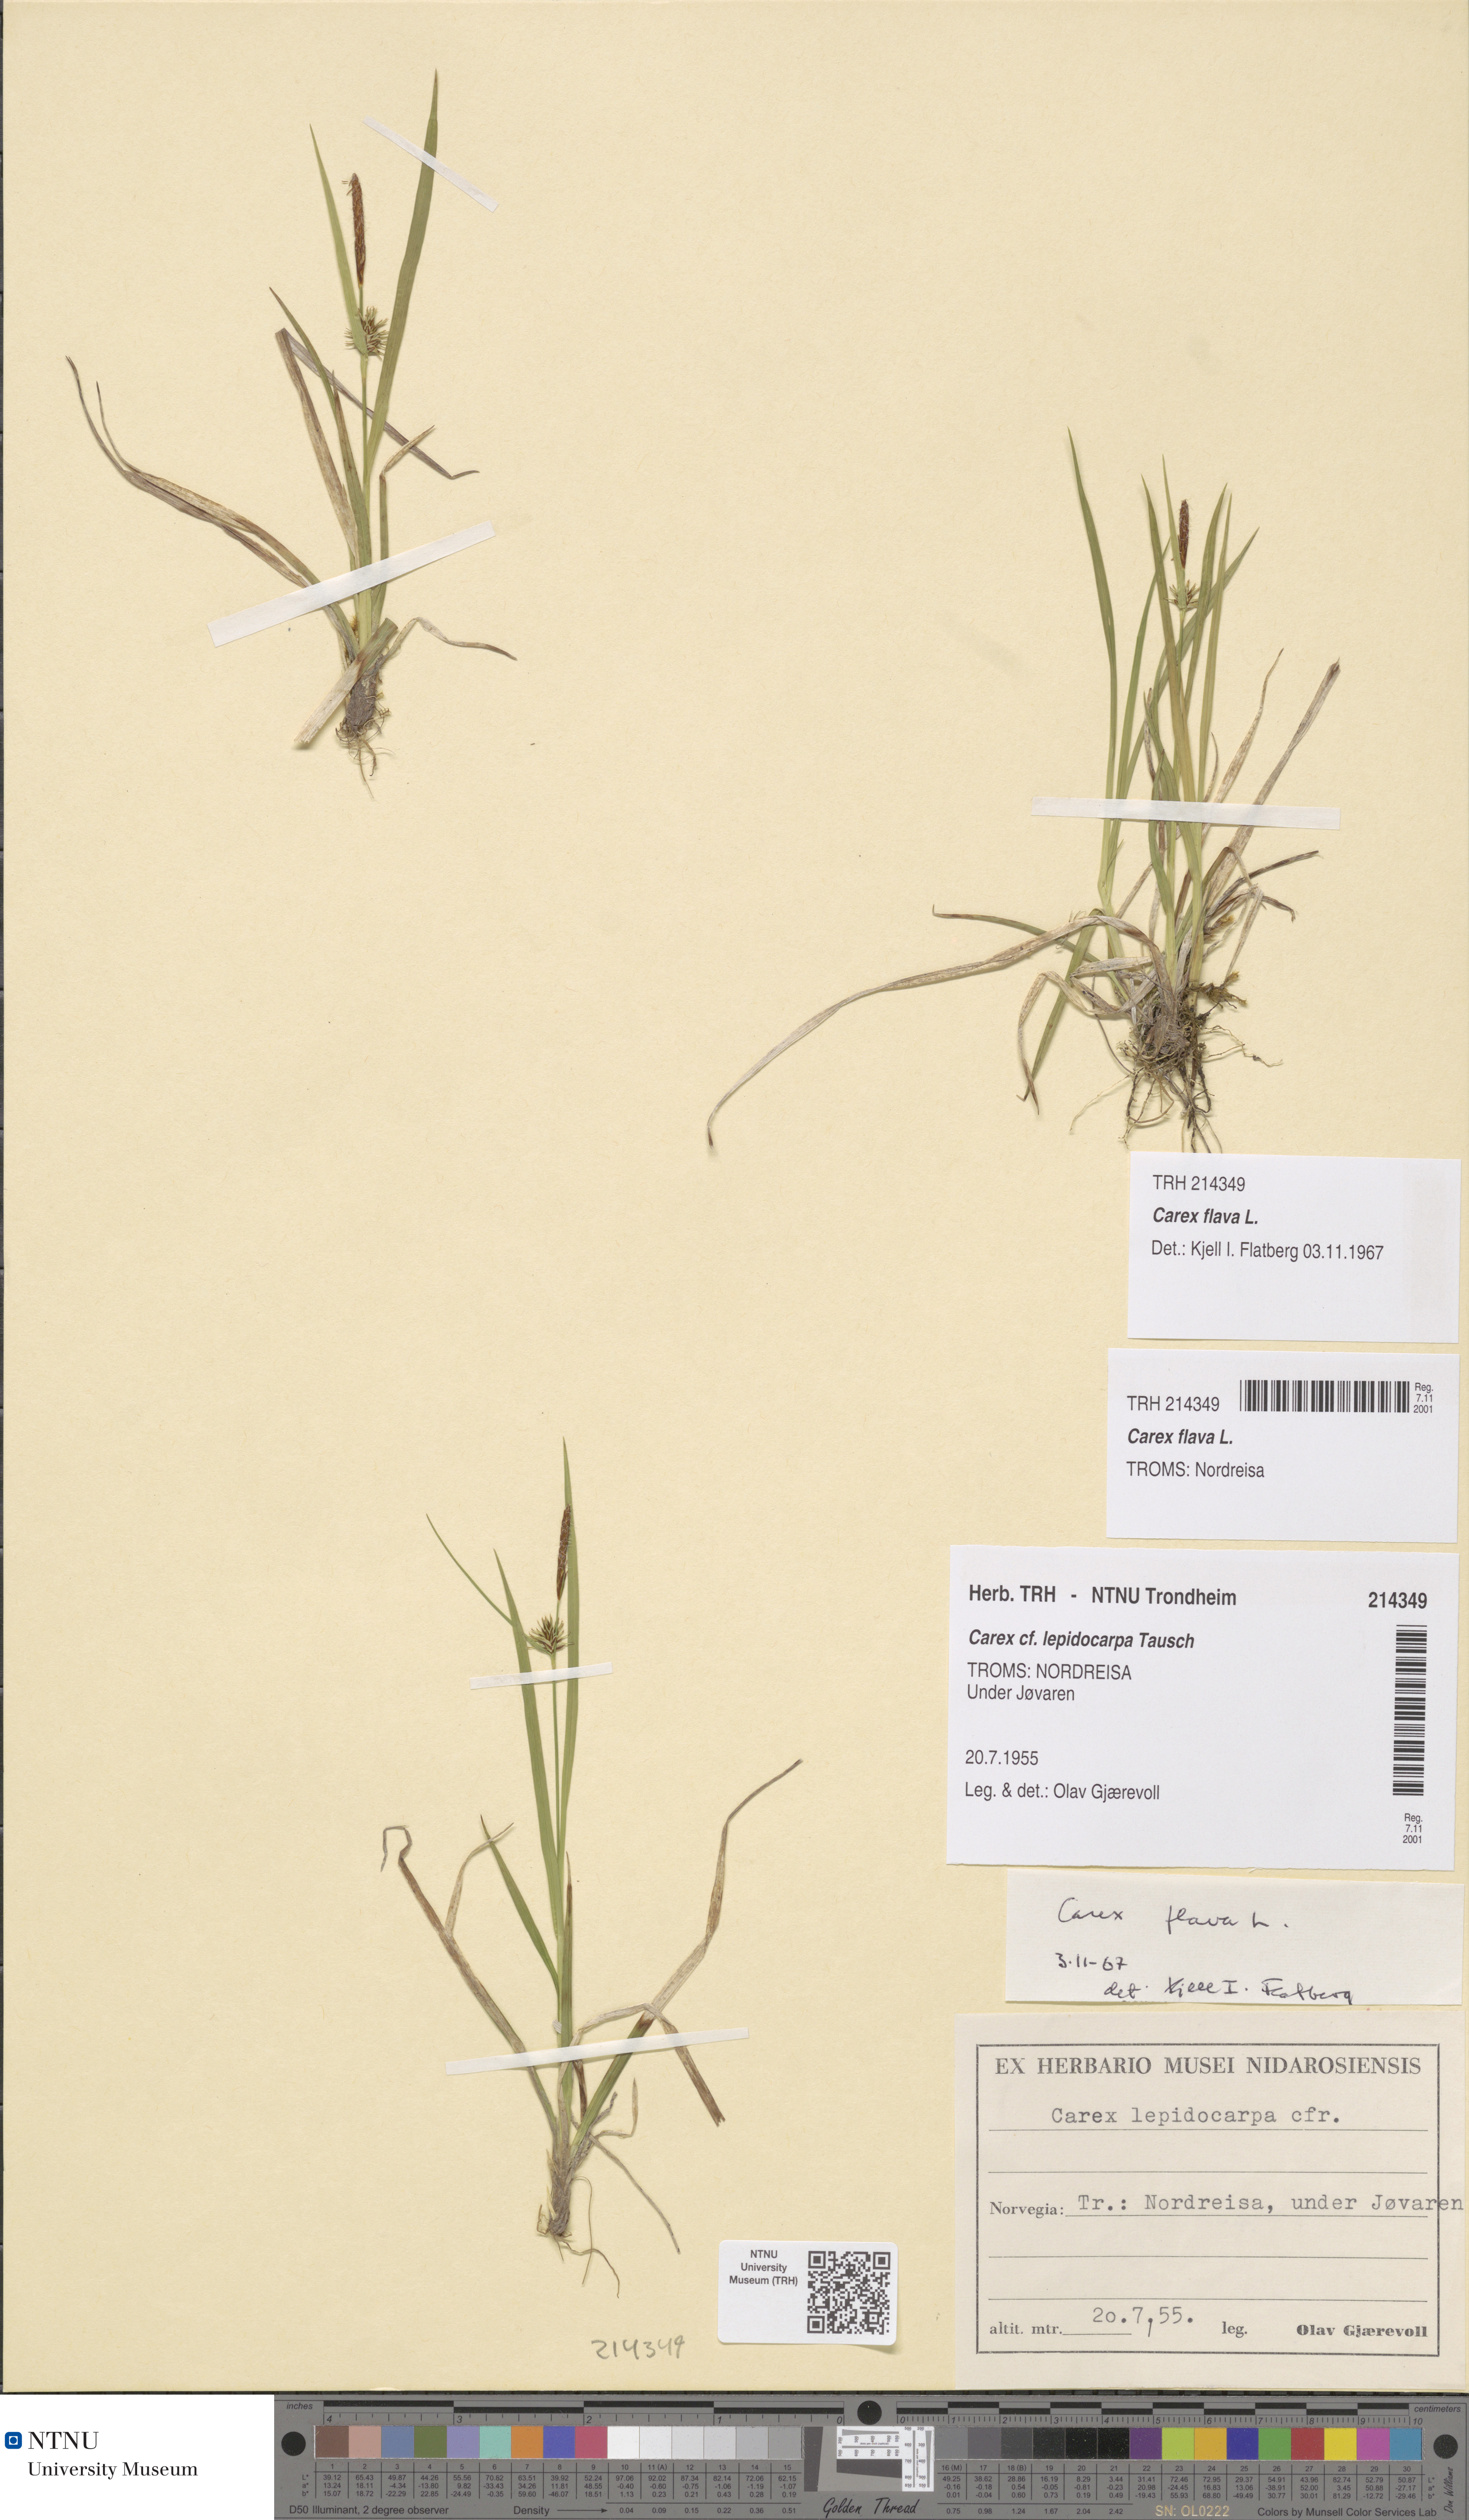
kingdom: Plantae
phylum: Tracheophyta
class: Liliopsida
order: Poales
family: Cyperaceae
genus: Carex
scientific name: Carex flava
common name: Large yellow-sedge
